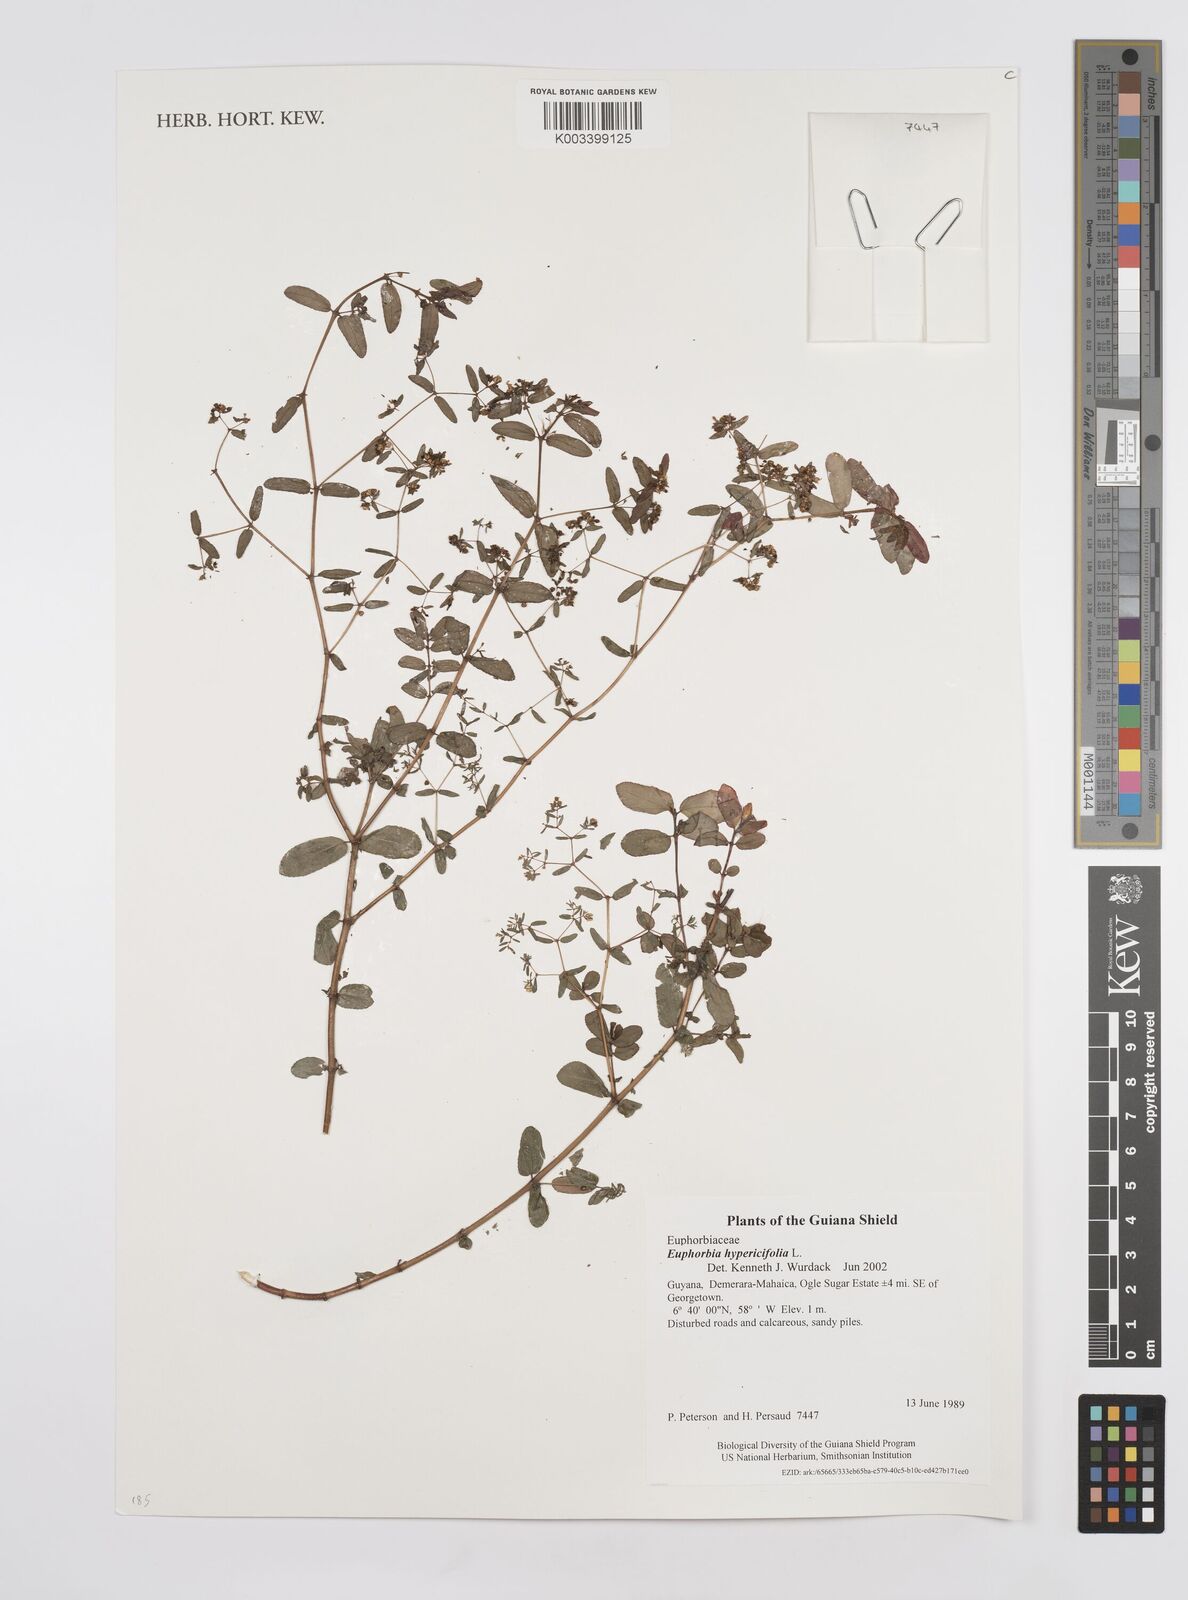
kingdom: Plantae
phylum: Tracheophyta
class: Magnoliopsida
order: Malpighiales
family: Euphorbiaceae
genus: Euphorbia
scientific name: Euphorbia hypericifolia
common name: Graceful sandmat
